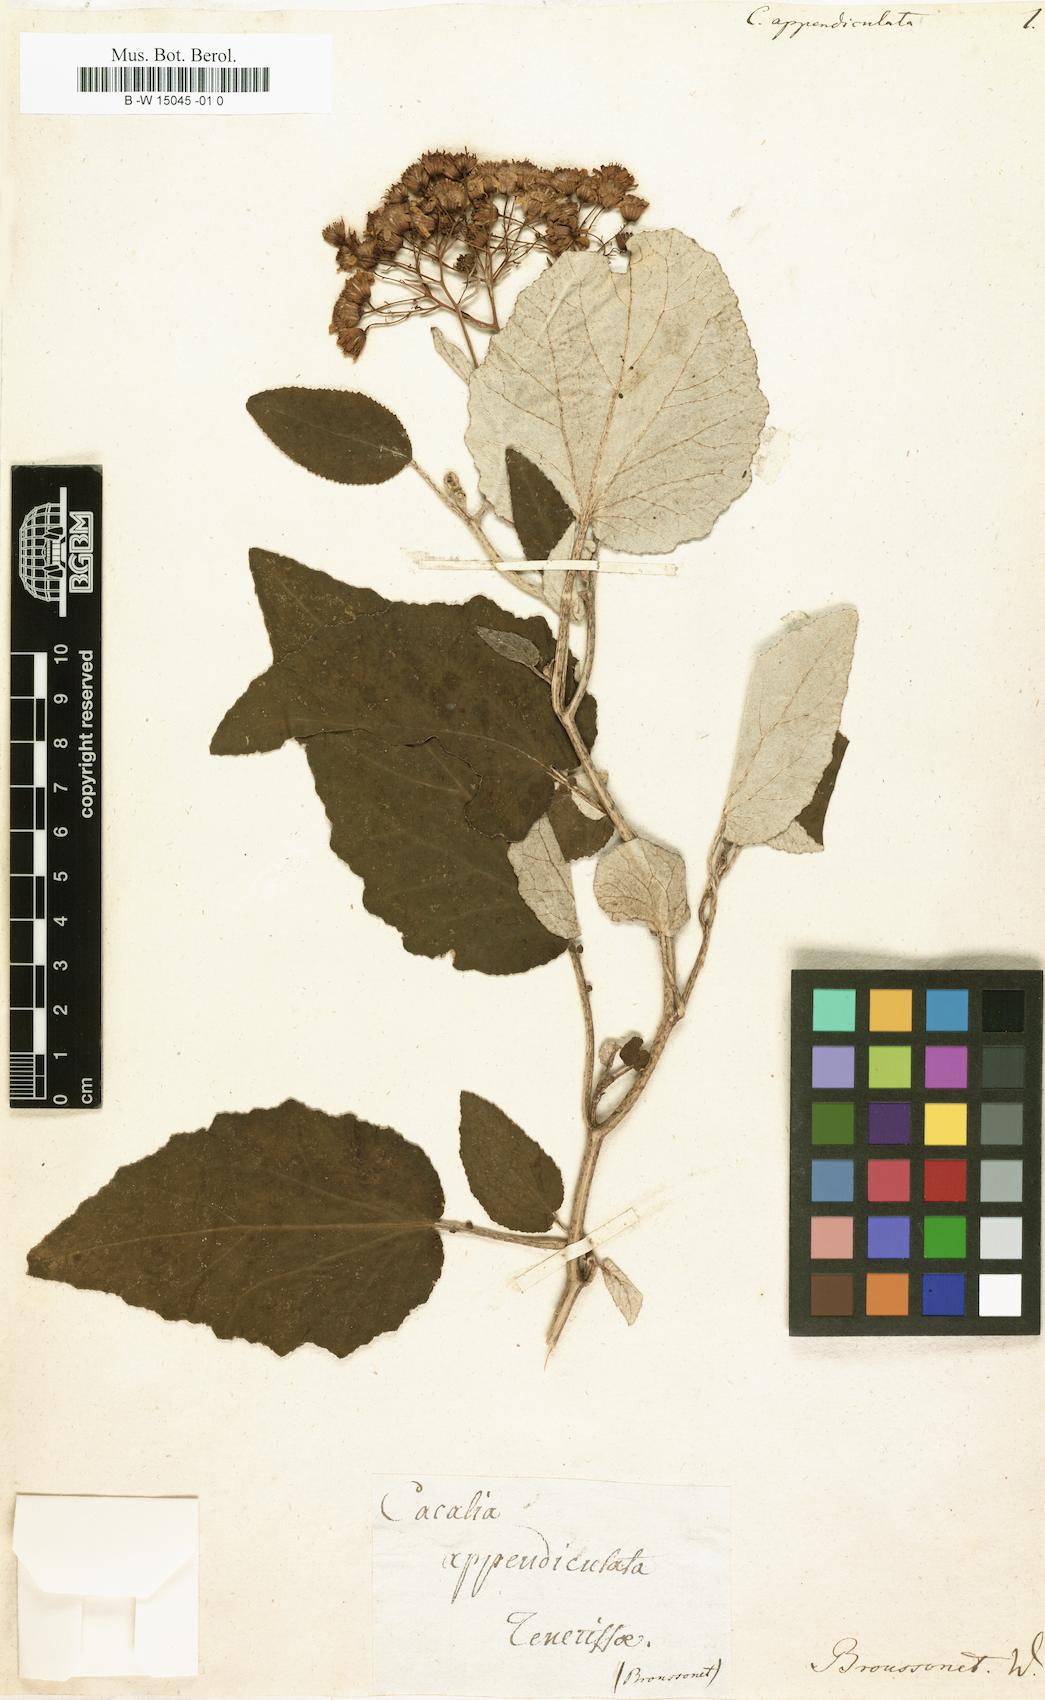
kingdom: Plantae
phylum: Tracheophyta
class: Magnoliopsida
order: Asterales
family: Asteraceae
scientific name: Asteraceae
